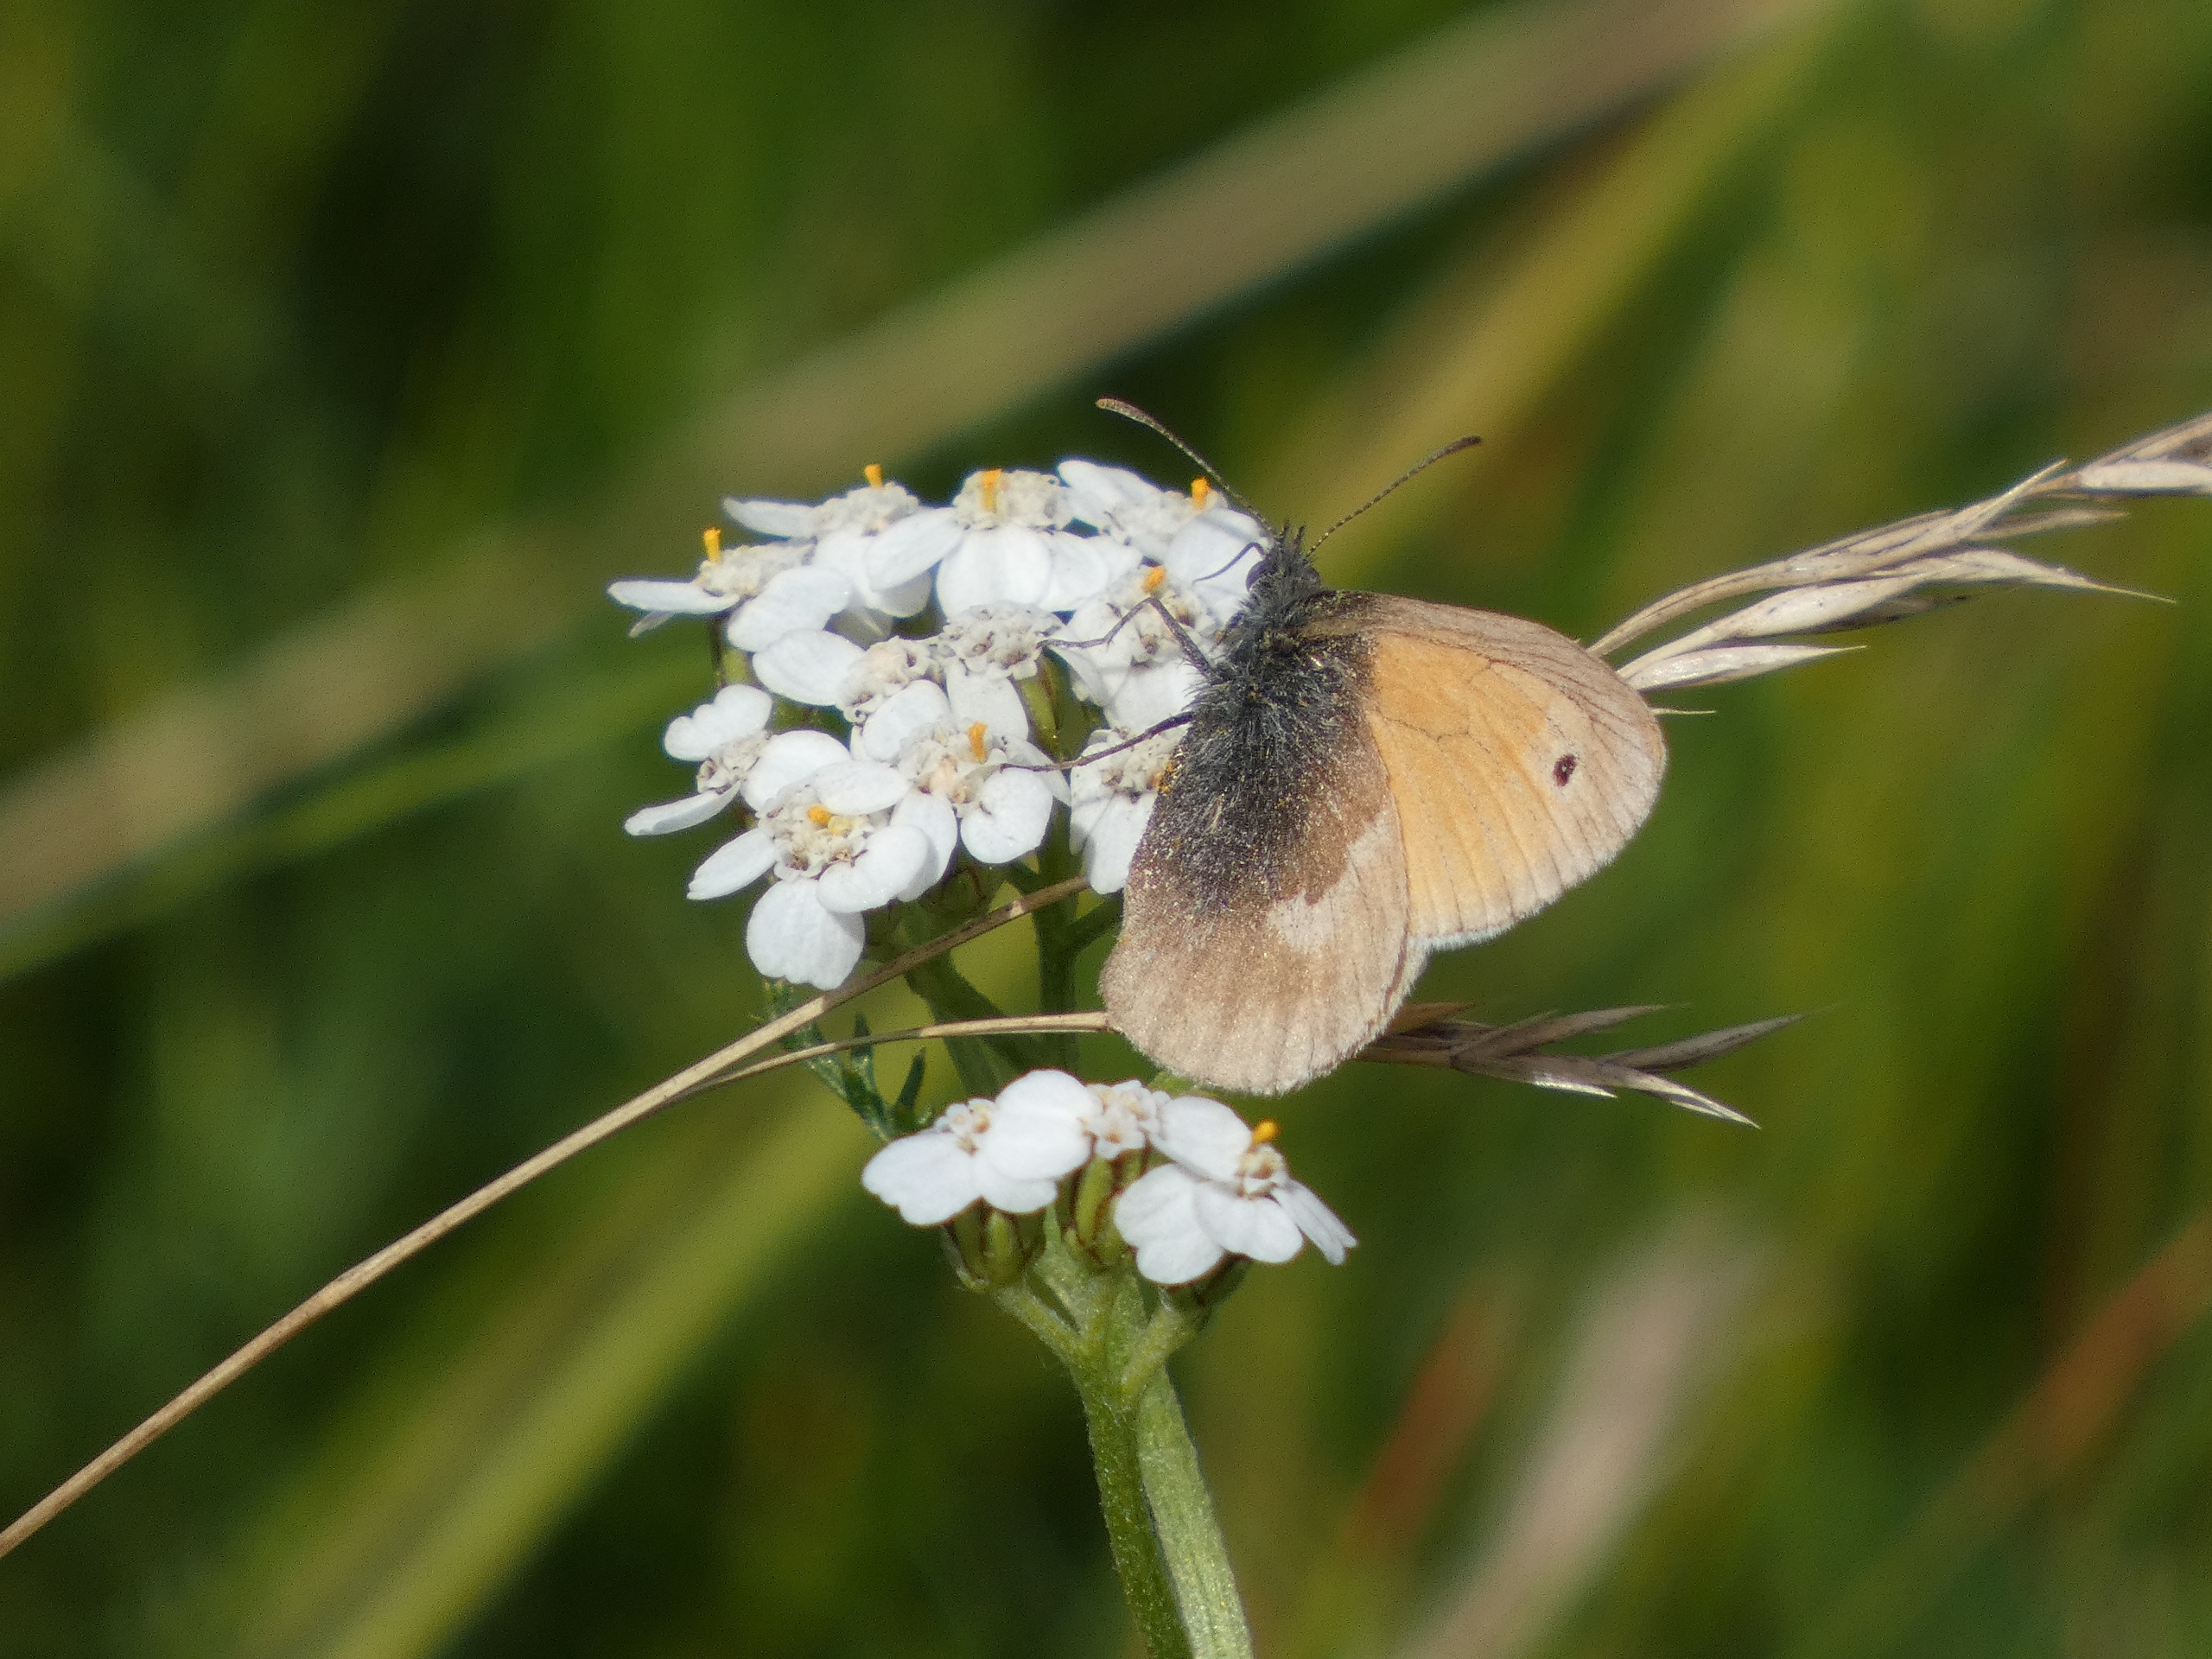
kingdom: Animalia
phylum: Arthropoda
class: Insecta
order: Lepidoptera
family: Nymphalidae
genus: Coenonympha
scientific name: Coenonympha pamphilus
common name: Okkergul randøje
